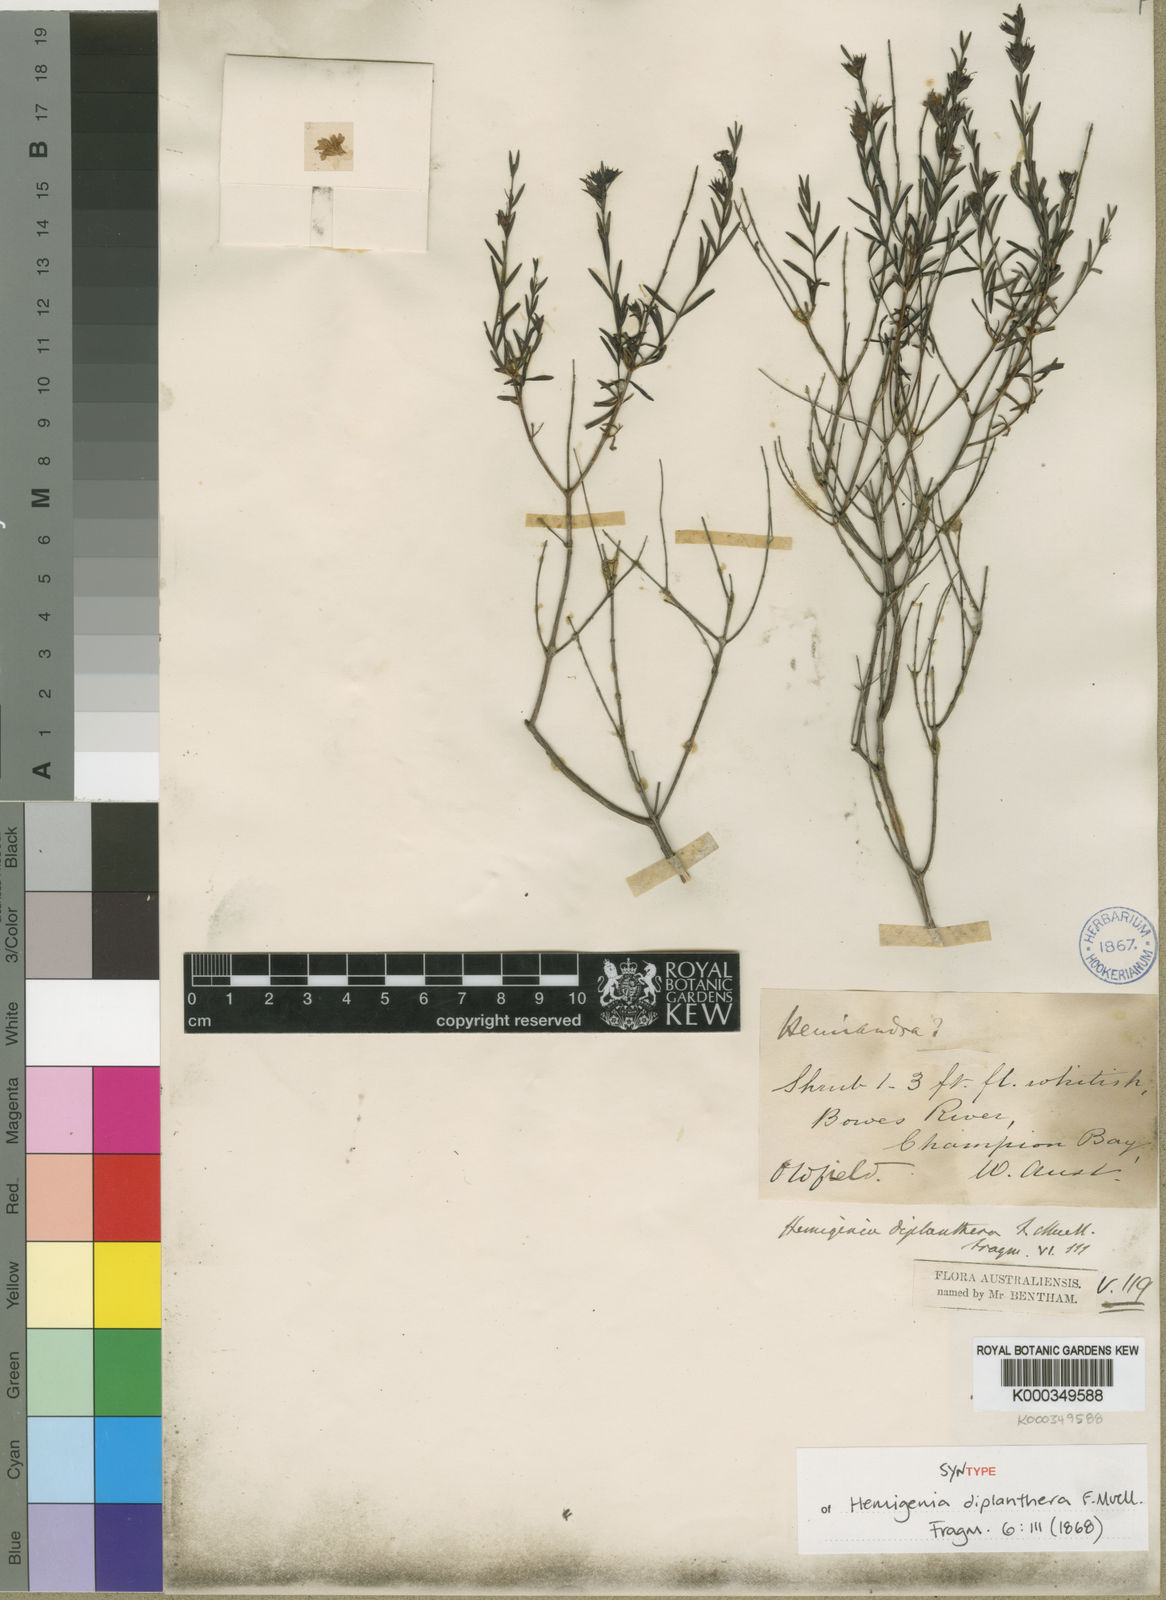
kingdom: Plantae
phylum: Tracheophyta
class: Magnoliopsida
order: Lamiales
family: Lamiaceae
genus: Hemigenia
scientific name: Hemigenia diplanthera
